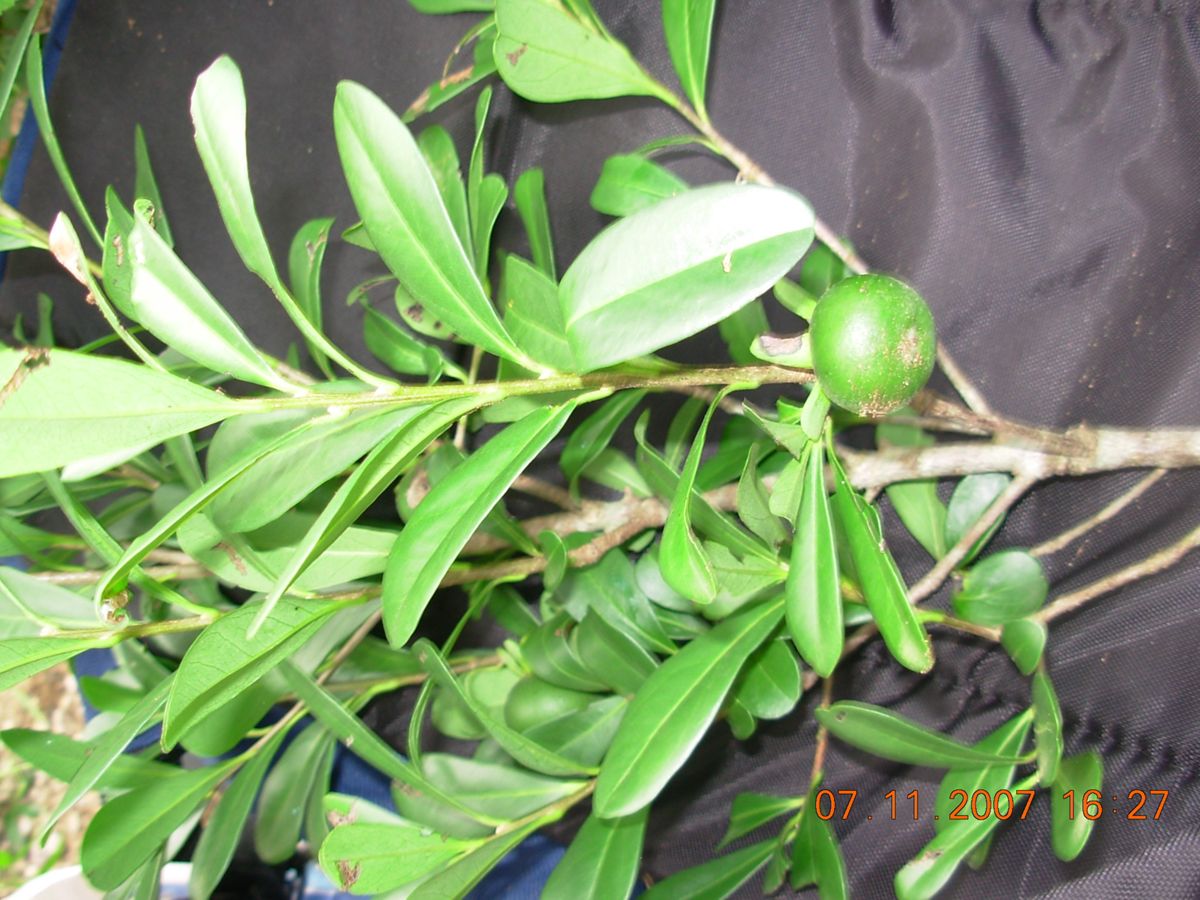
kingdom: Plantae
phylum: Tracheophyta
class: Magnoliopsida
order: Ericales
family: Ebenaceae
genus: Diospyros
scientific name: Diospyros johnstoniana
